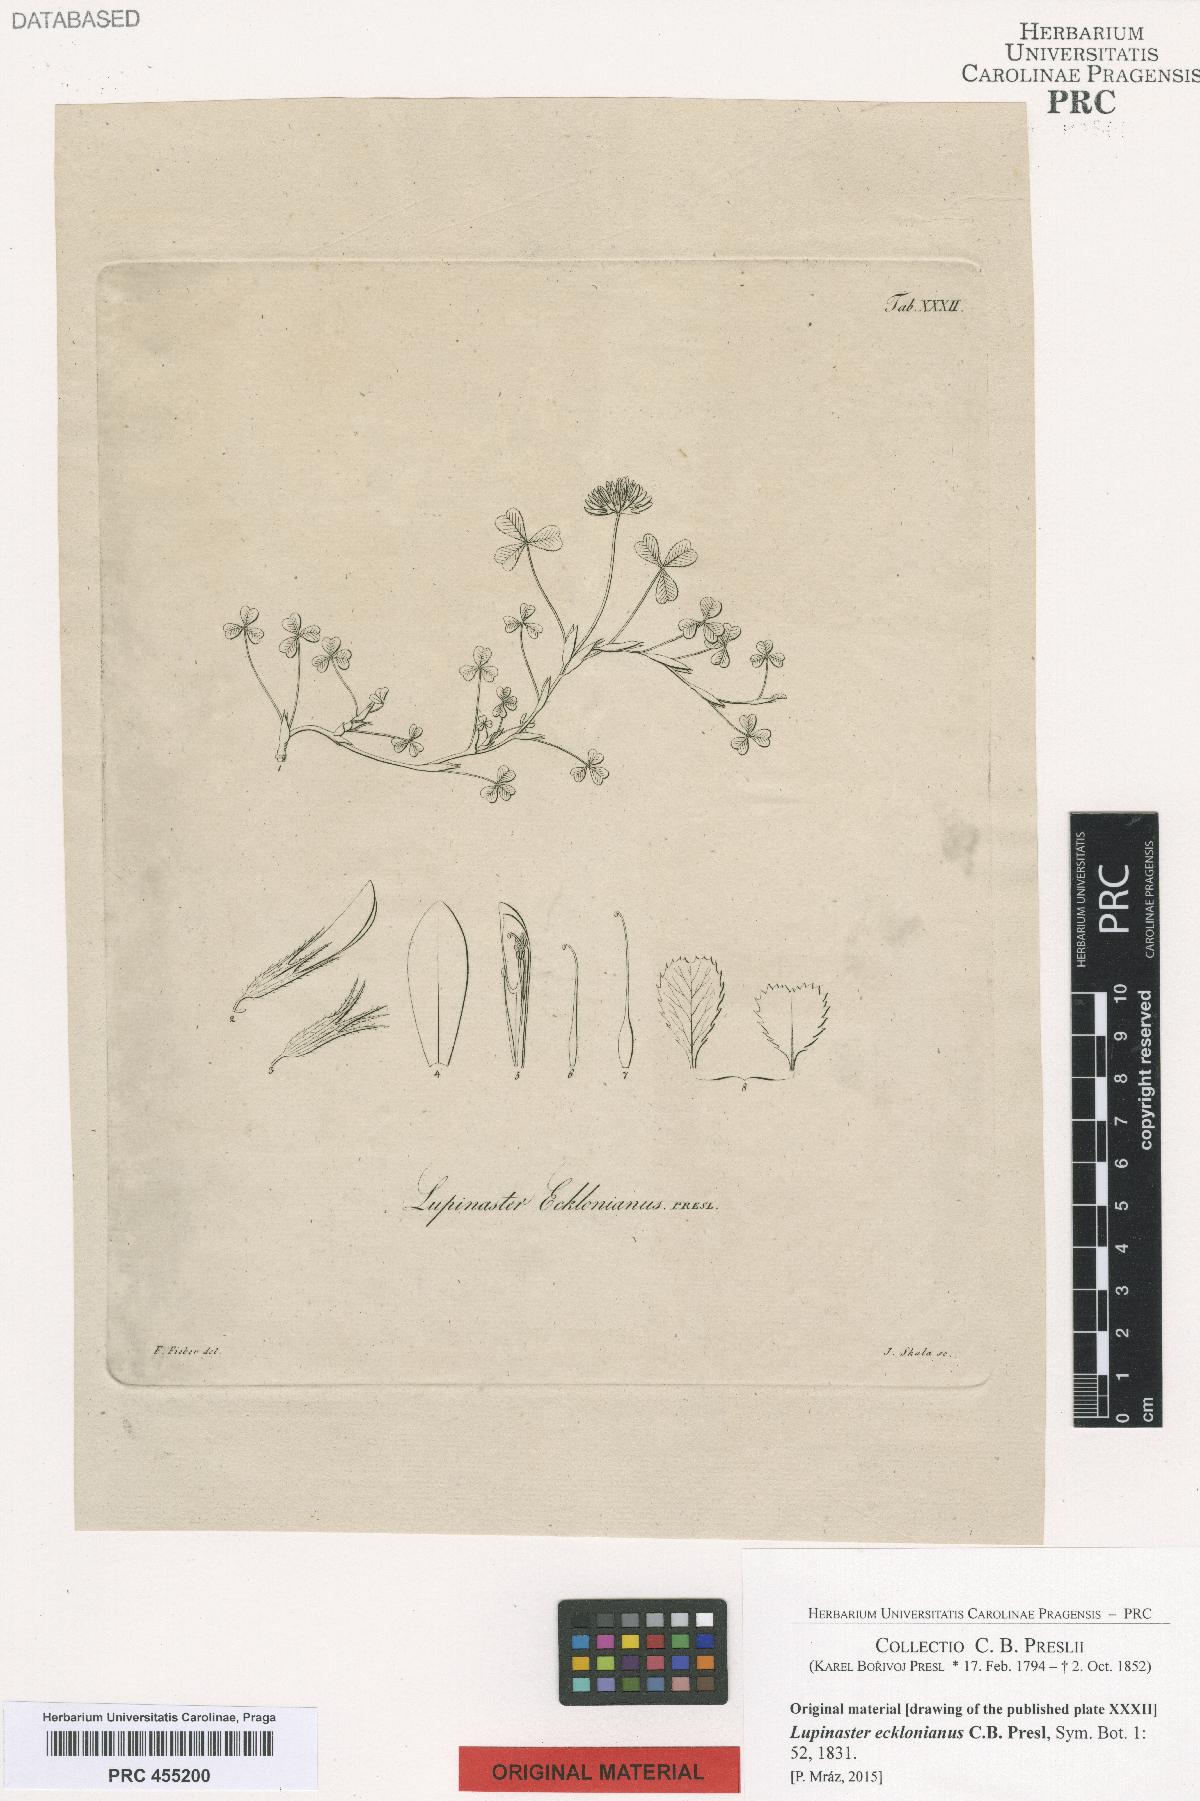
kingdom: Plantae
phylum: Tracheophyta
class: Magnoliopsida
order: Fabales
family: Fabaceae
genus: Trifolium
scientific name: Trifolium burchellianum
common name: Burchell's clover
